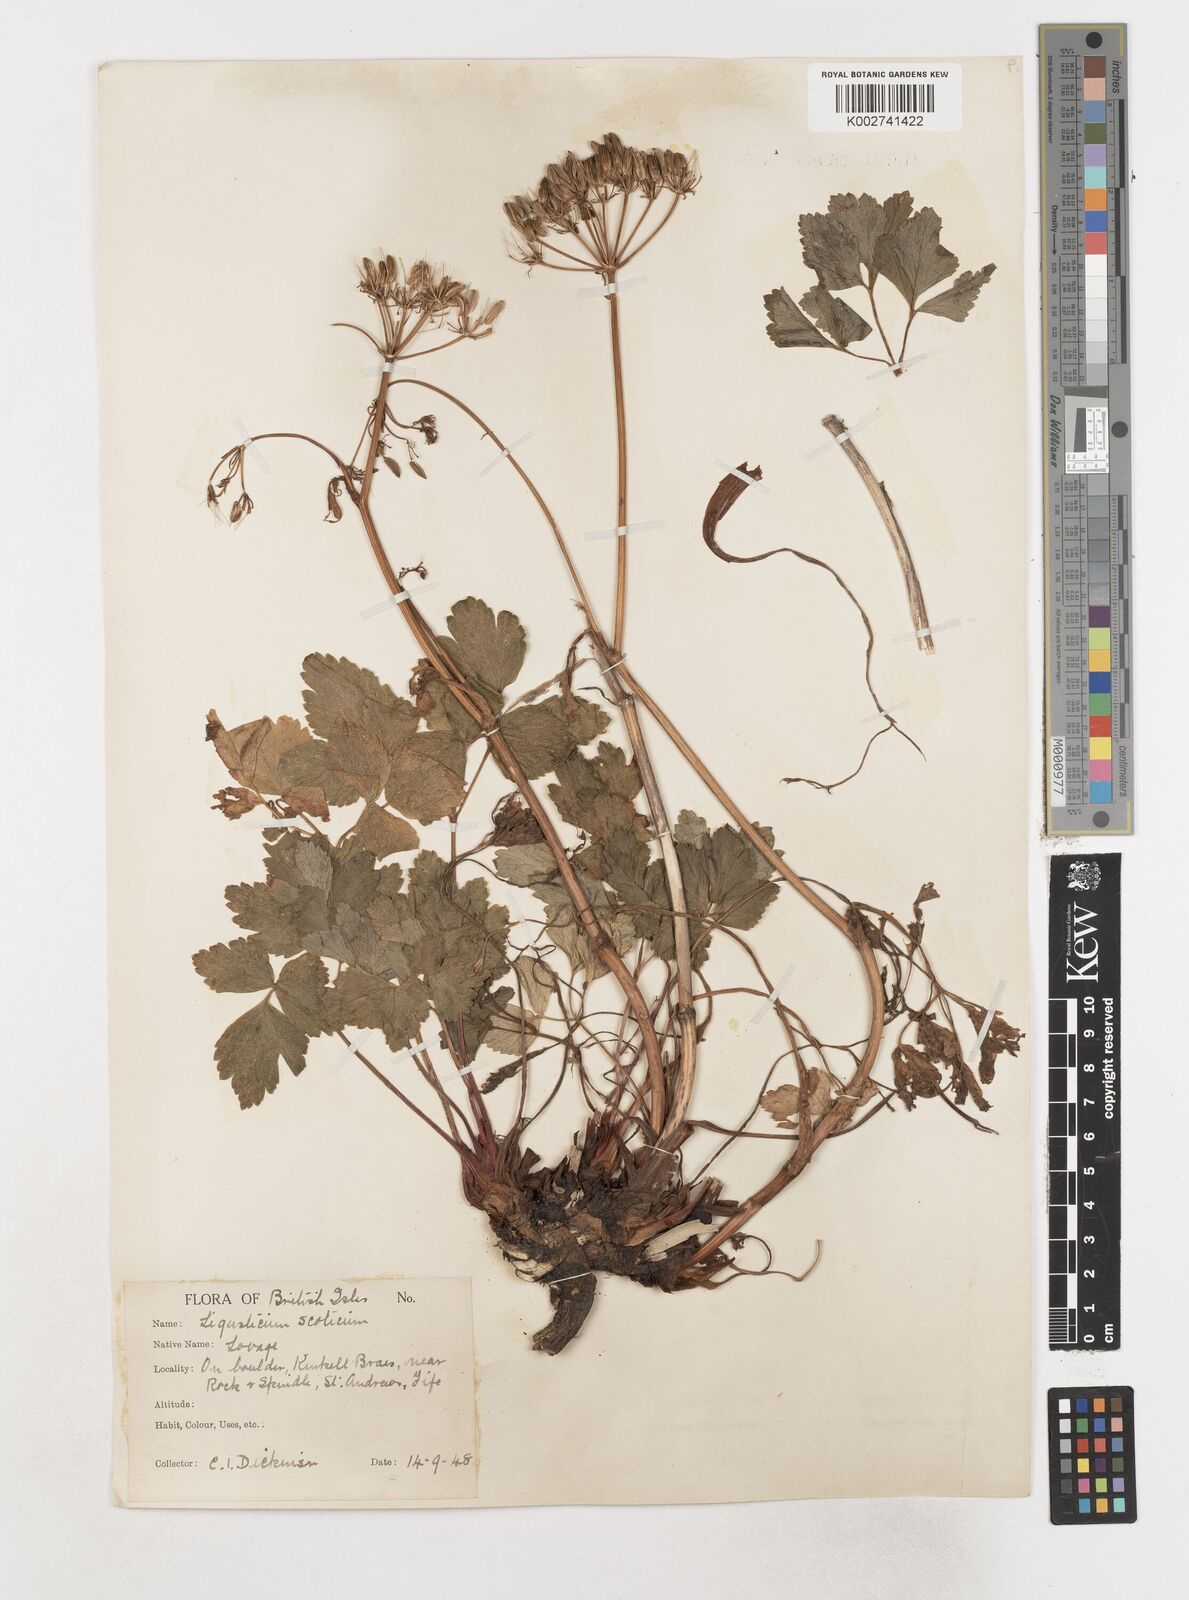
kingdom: Plantae
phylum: Tracheophyta
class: Magnoliopsida
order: Apiales
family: Apiaceae
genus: Ligusticum
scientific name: Ligusticum scothicum
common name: Beach lovage
